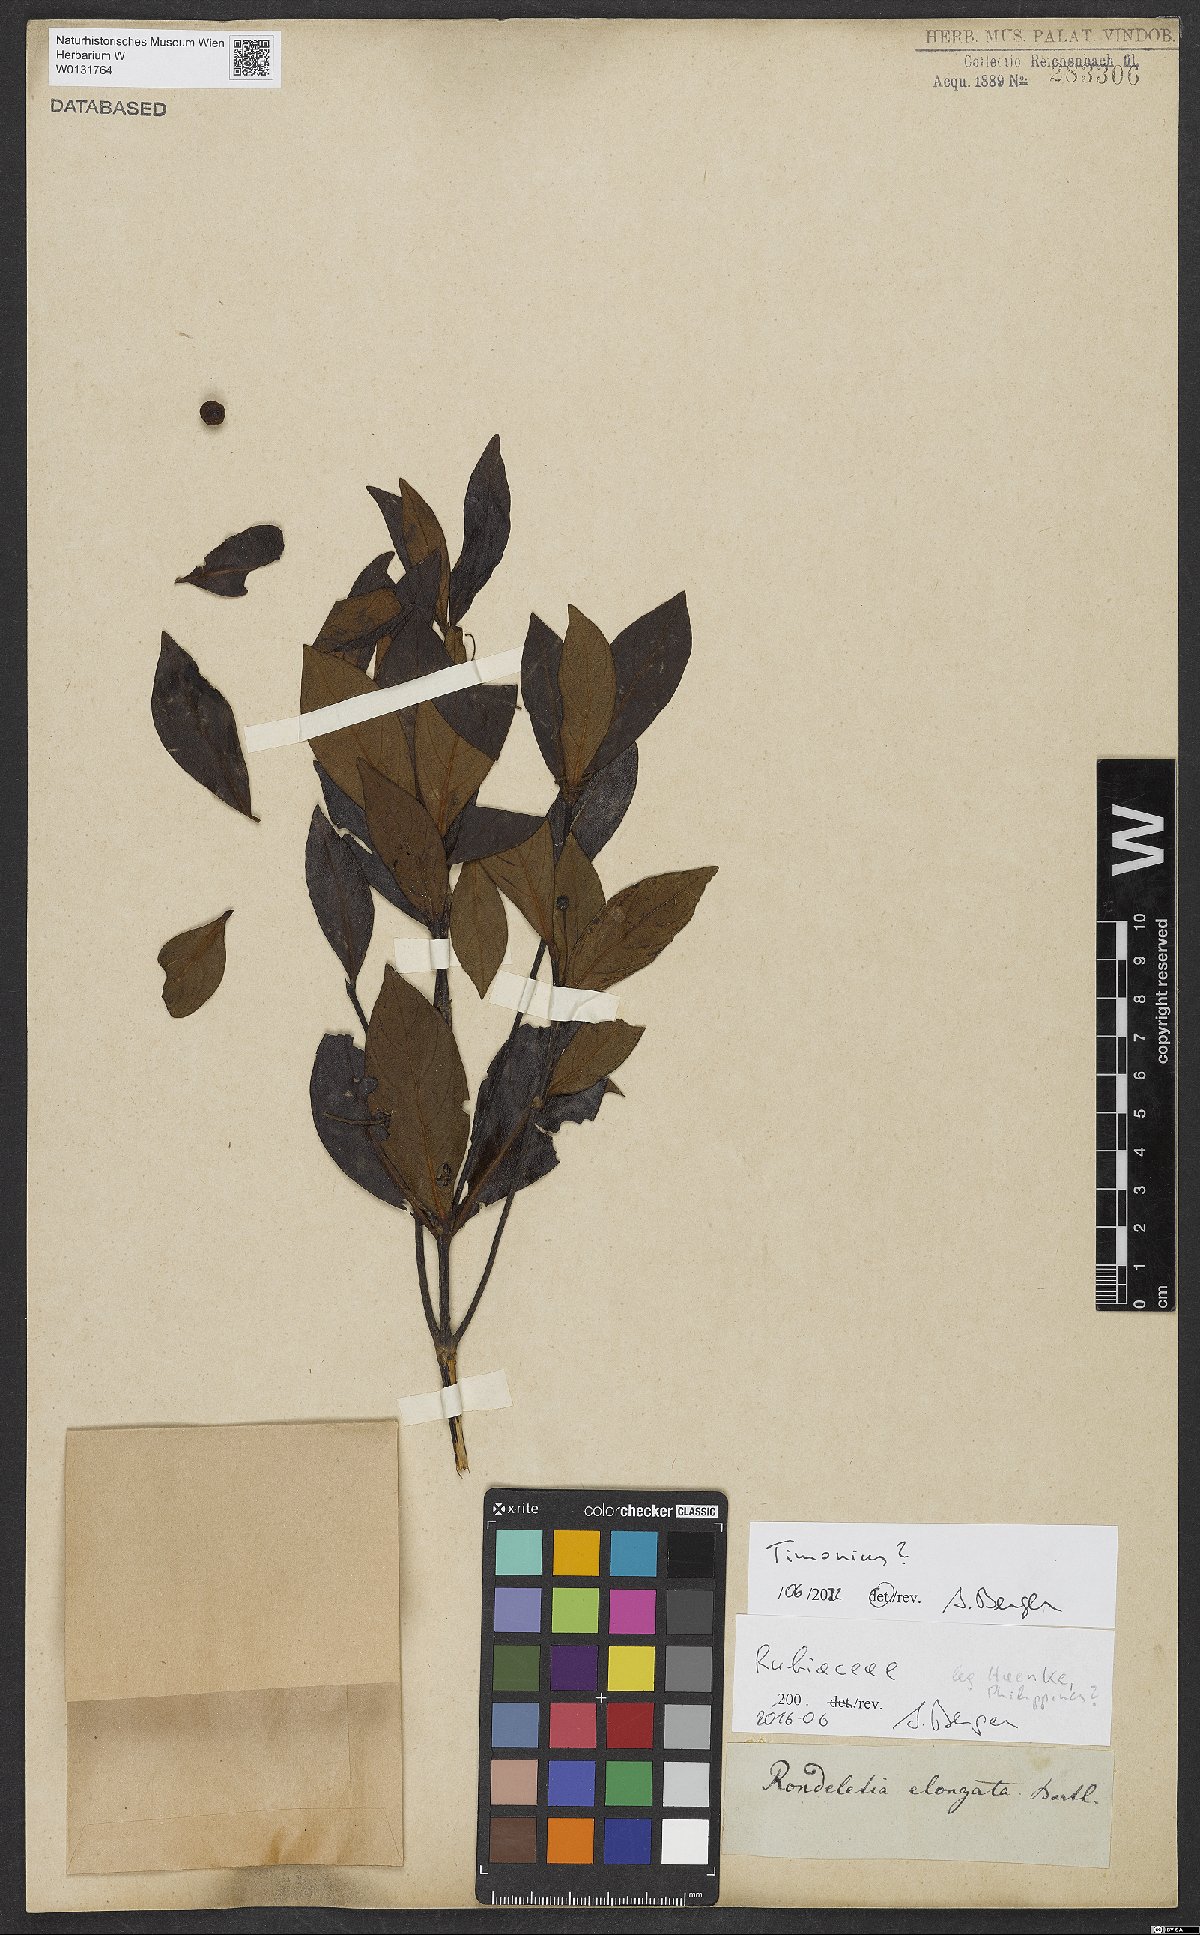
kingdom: Plantae
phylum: Tracheophyta
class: Magnoliopsida
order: Gentianales
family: Rubiaceae
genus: Timonius
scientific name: Timonius
